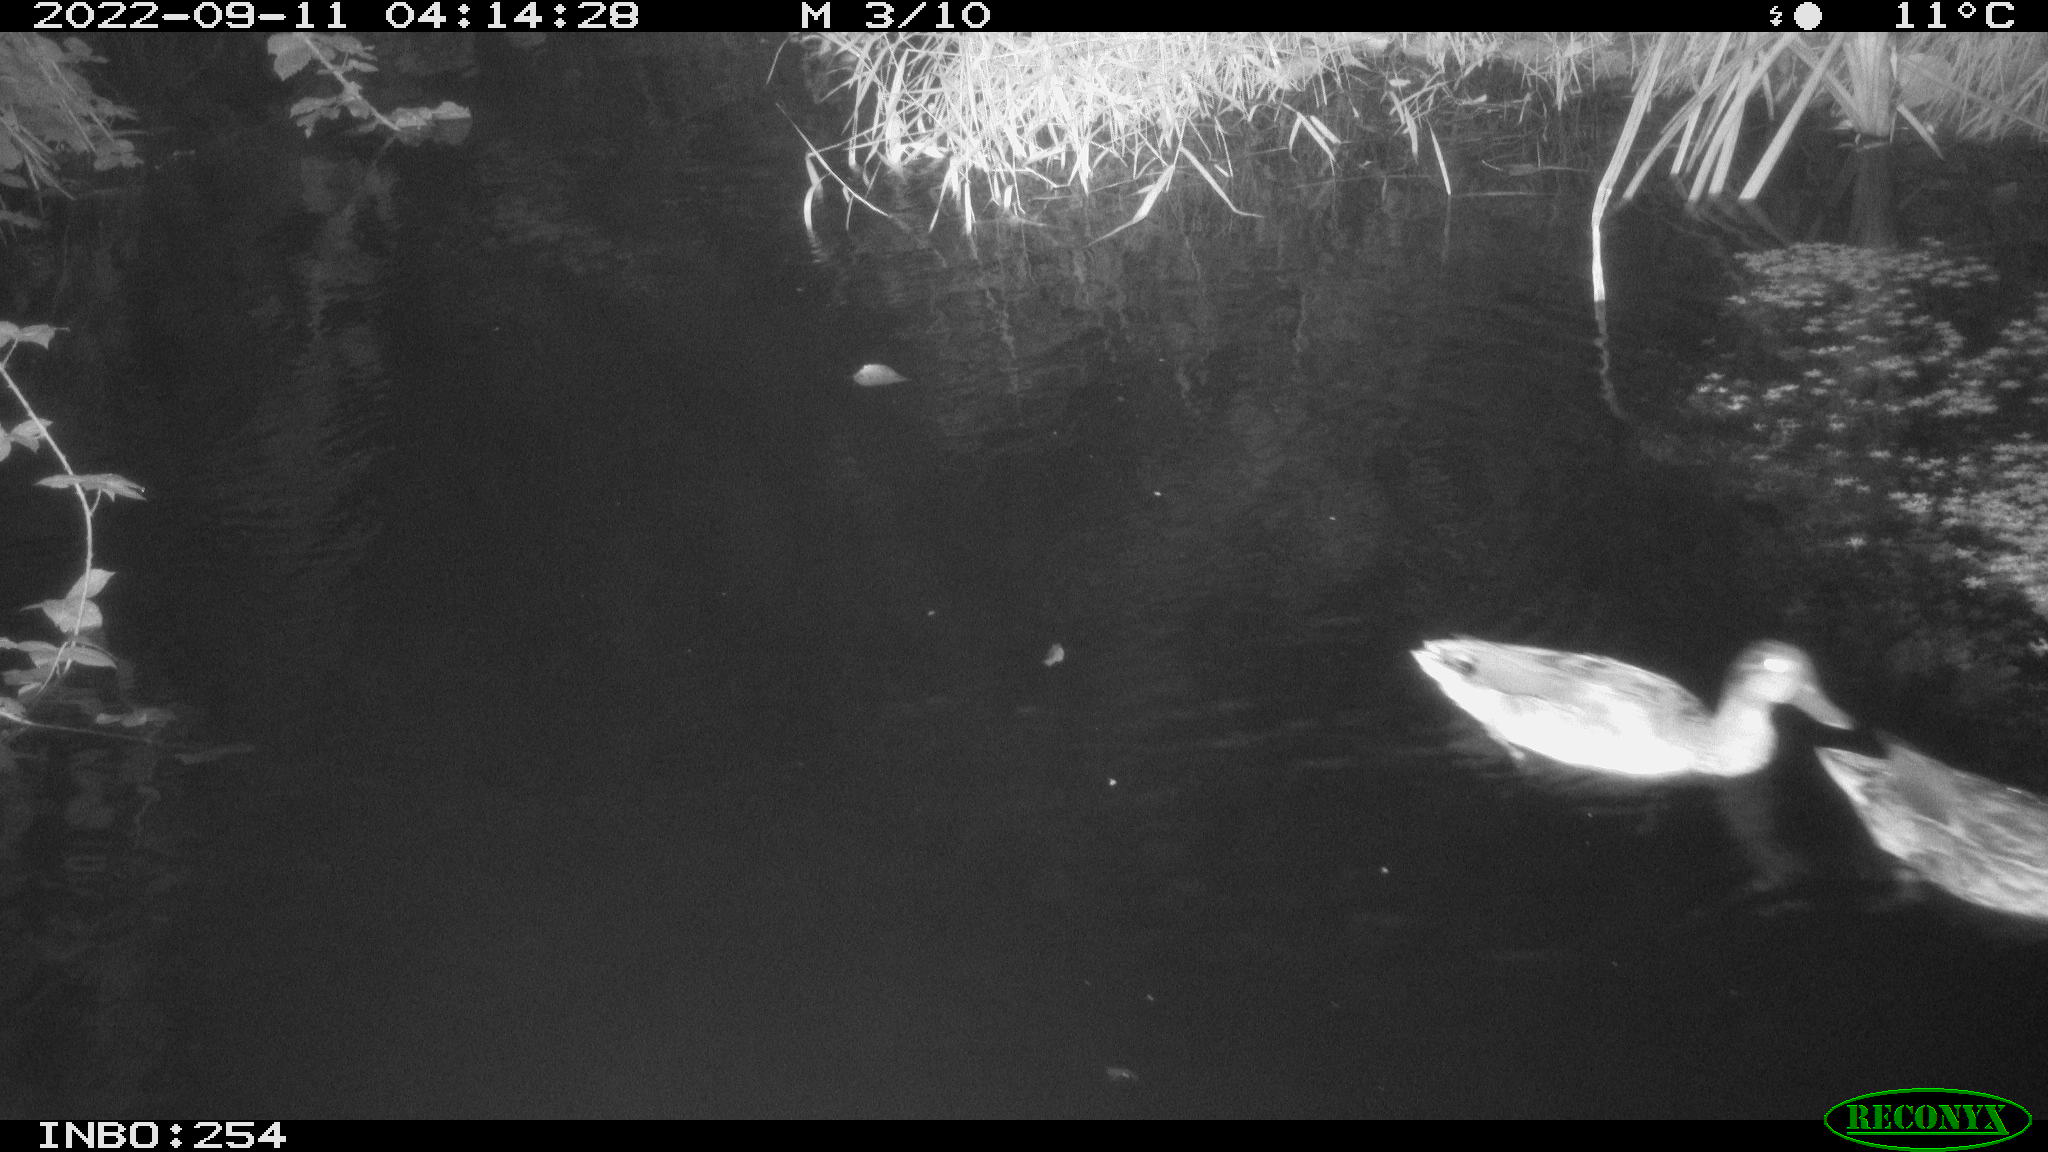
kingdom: Animalia
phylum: Chordata
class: Aves
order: Anseriformes
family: Anatidae
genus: Anas
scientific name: Anas
